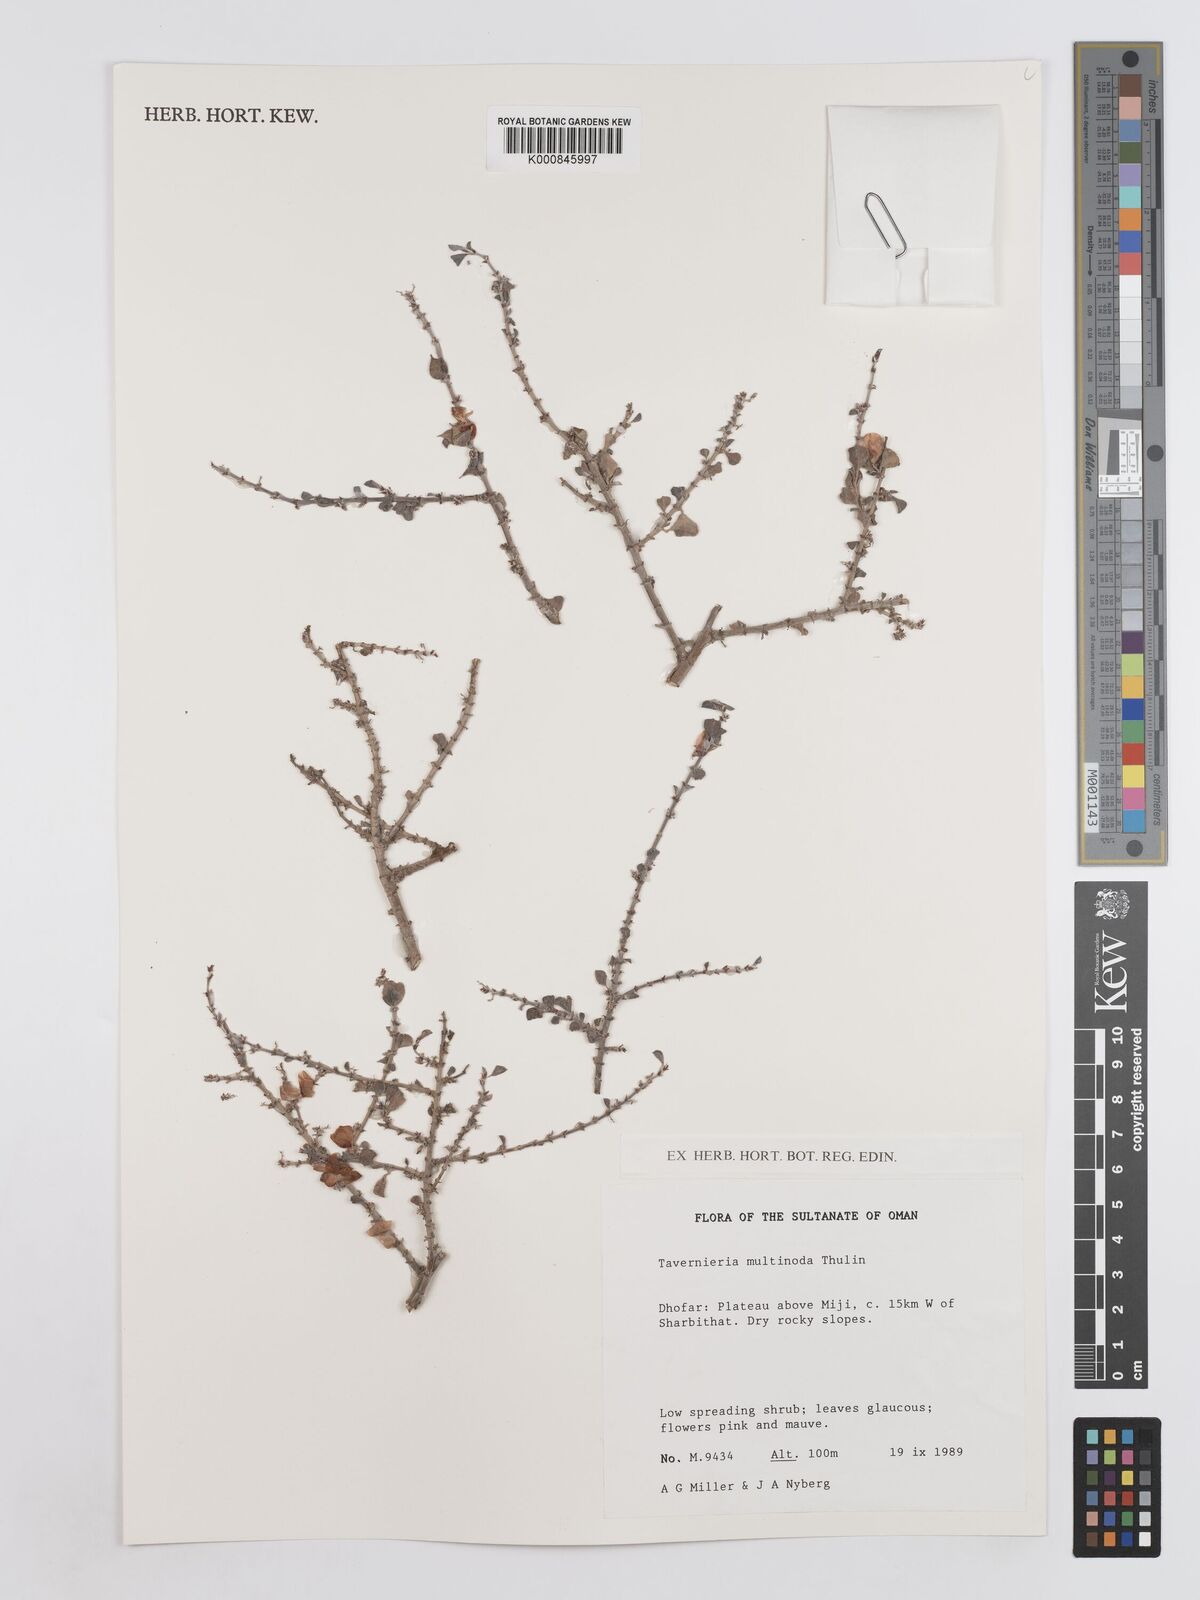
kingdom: Plantae
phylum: Tracheophyta
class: Magnoliopsida
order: Fabales
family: Fabaceae
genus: Taverniera
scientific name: Taverniera multinoda
